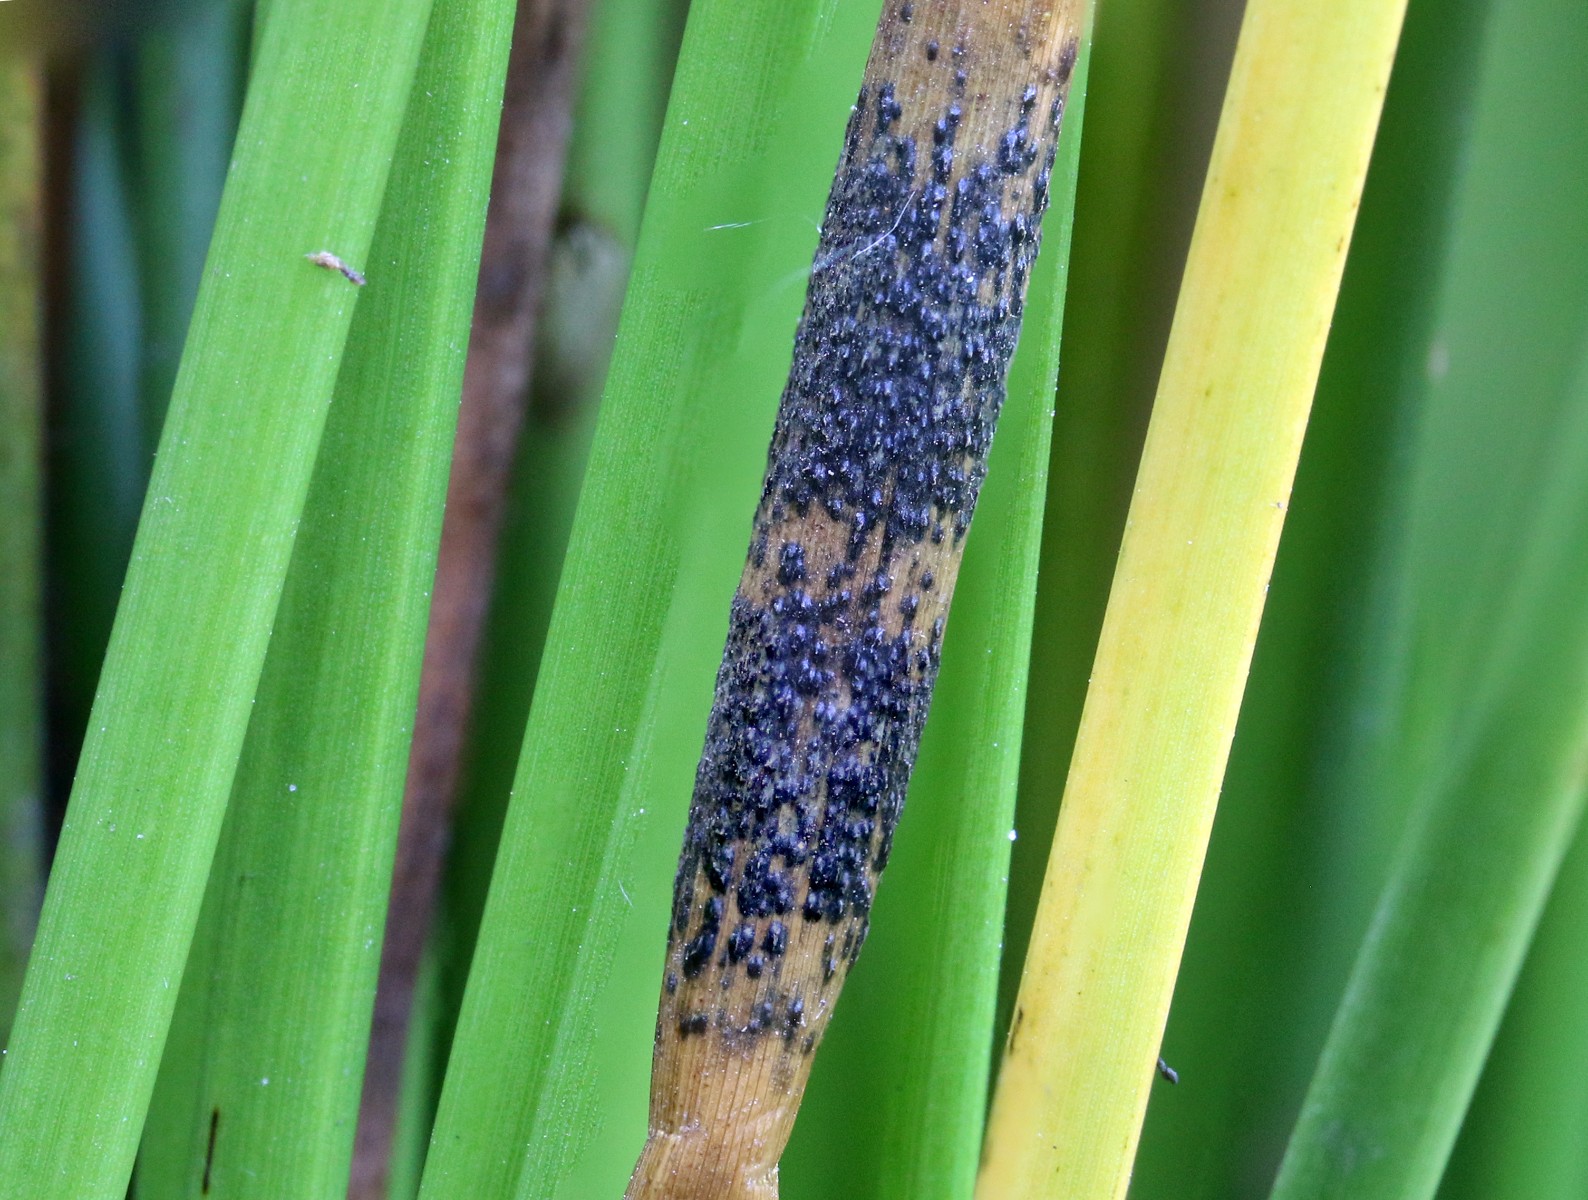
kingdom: Fungi
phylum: Ascomycota
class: Sordariomycetes
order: Phyllachorales
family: Phyllachoraceae
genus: Phyllachora
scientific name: Phyllachora junci
